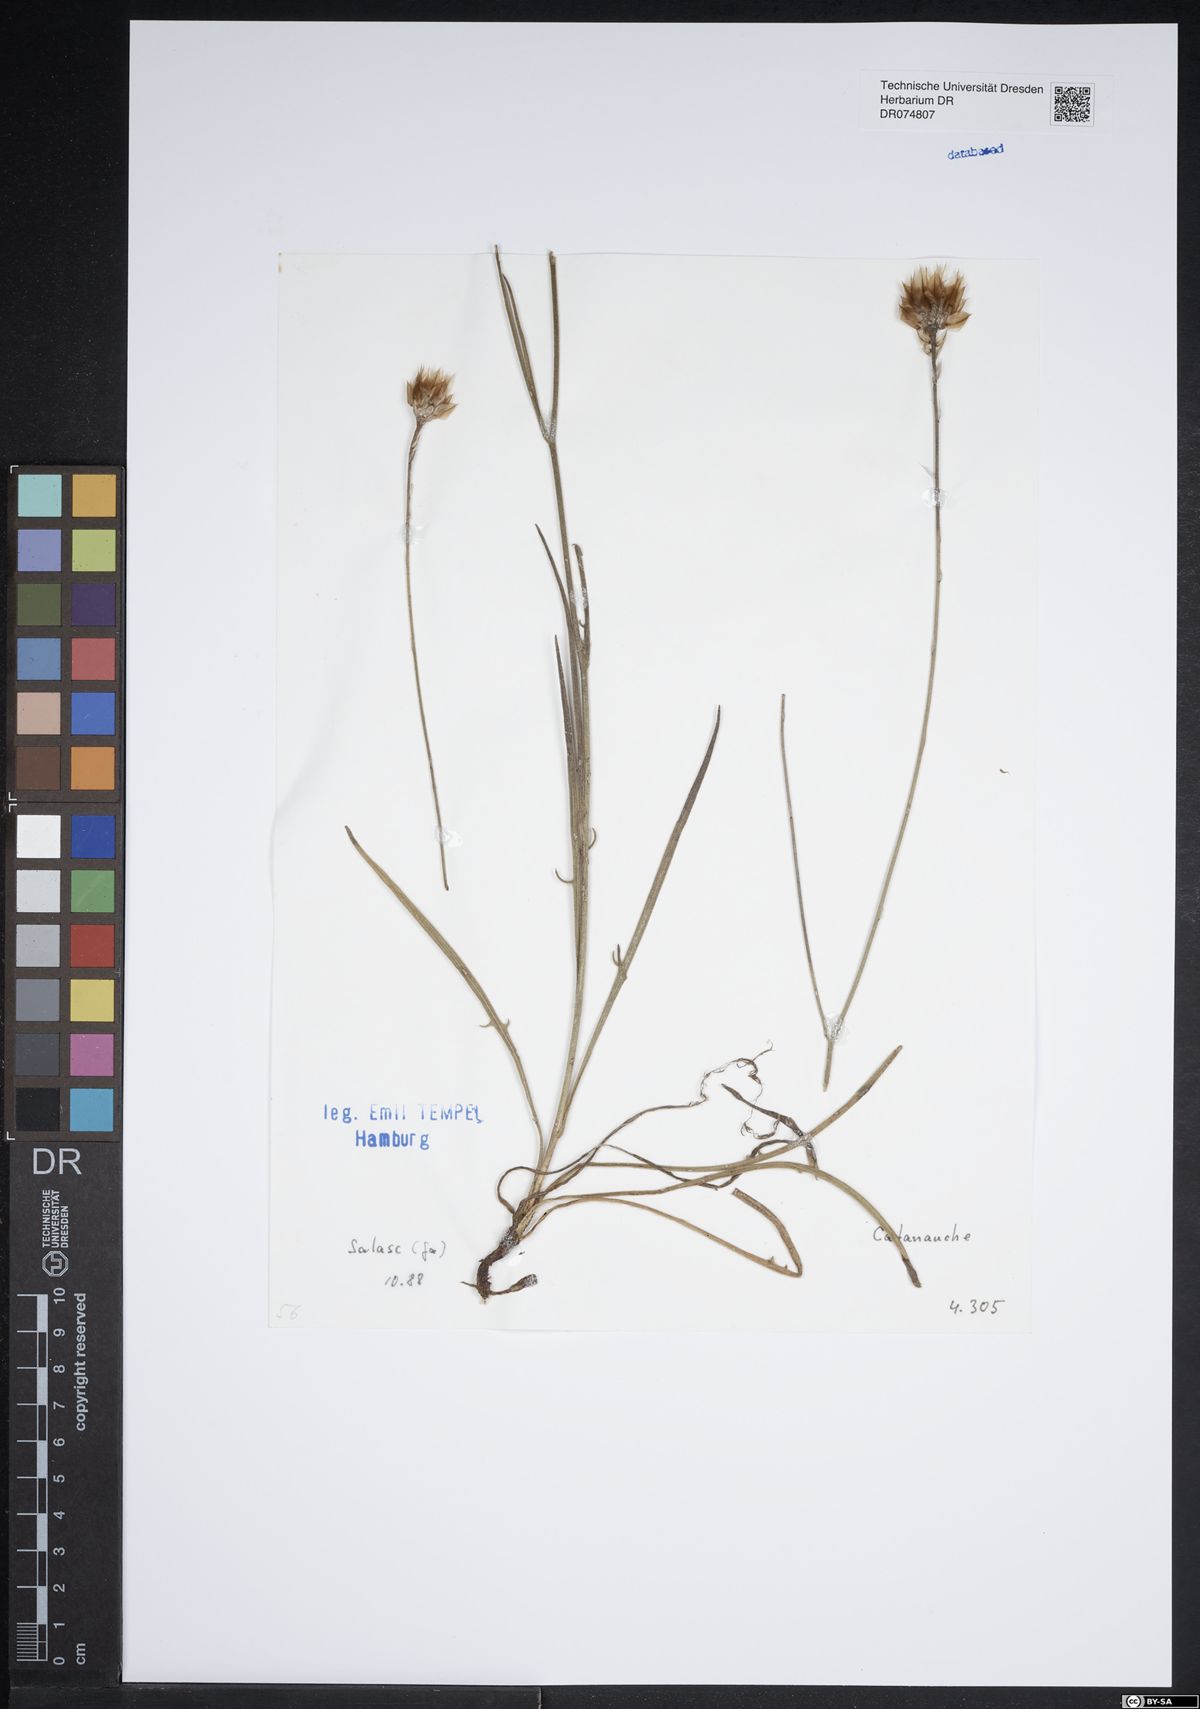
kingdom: Plantae
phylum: Tracheophyta
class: Magnoliopsida
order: Asterales
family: Asteraceae
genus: Catananche
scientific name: Catananche
